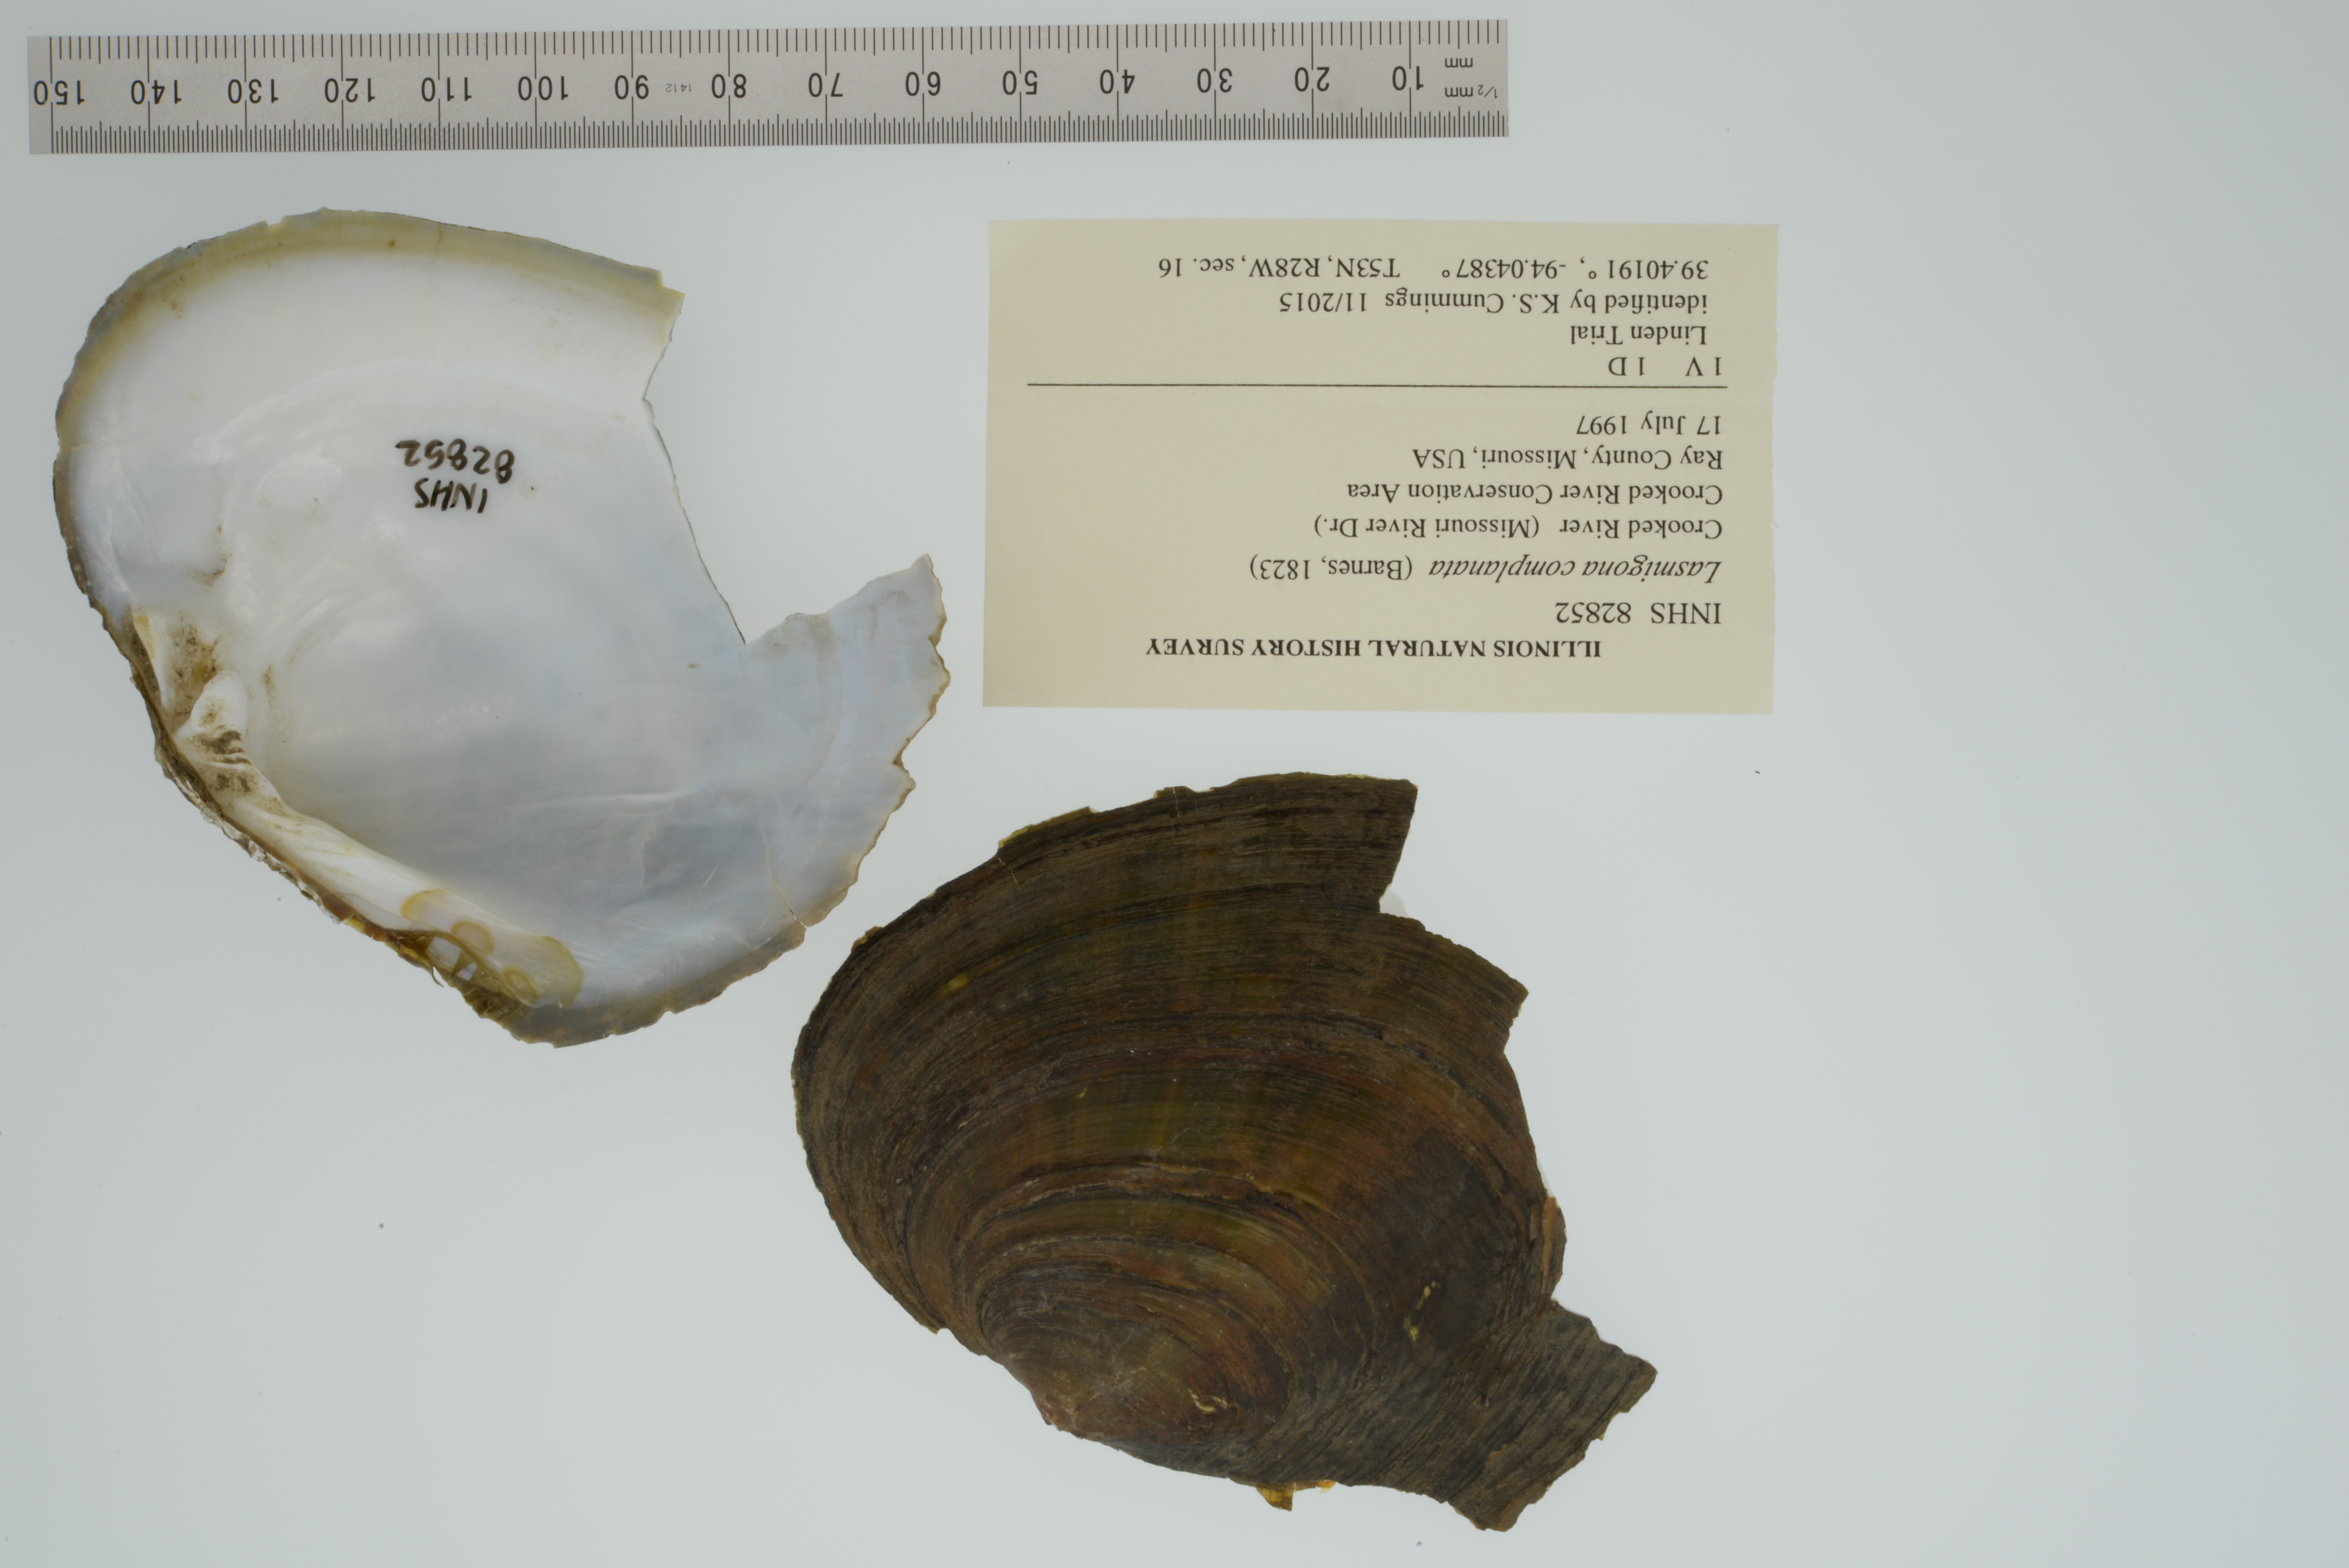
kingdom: Animalia
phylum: Mollusca
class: Bivalvia
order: Unionida
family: Unionidae
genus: Lasmigona
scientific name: Lasmigona complanata
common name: White heelsplitter
